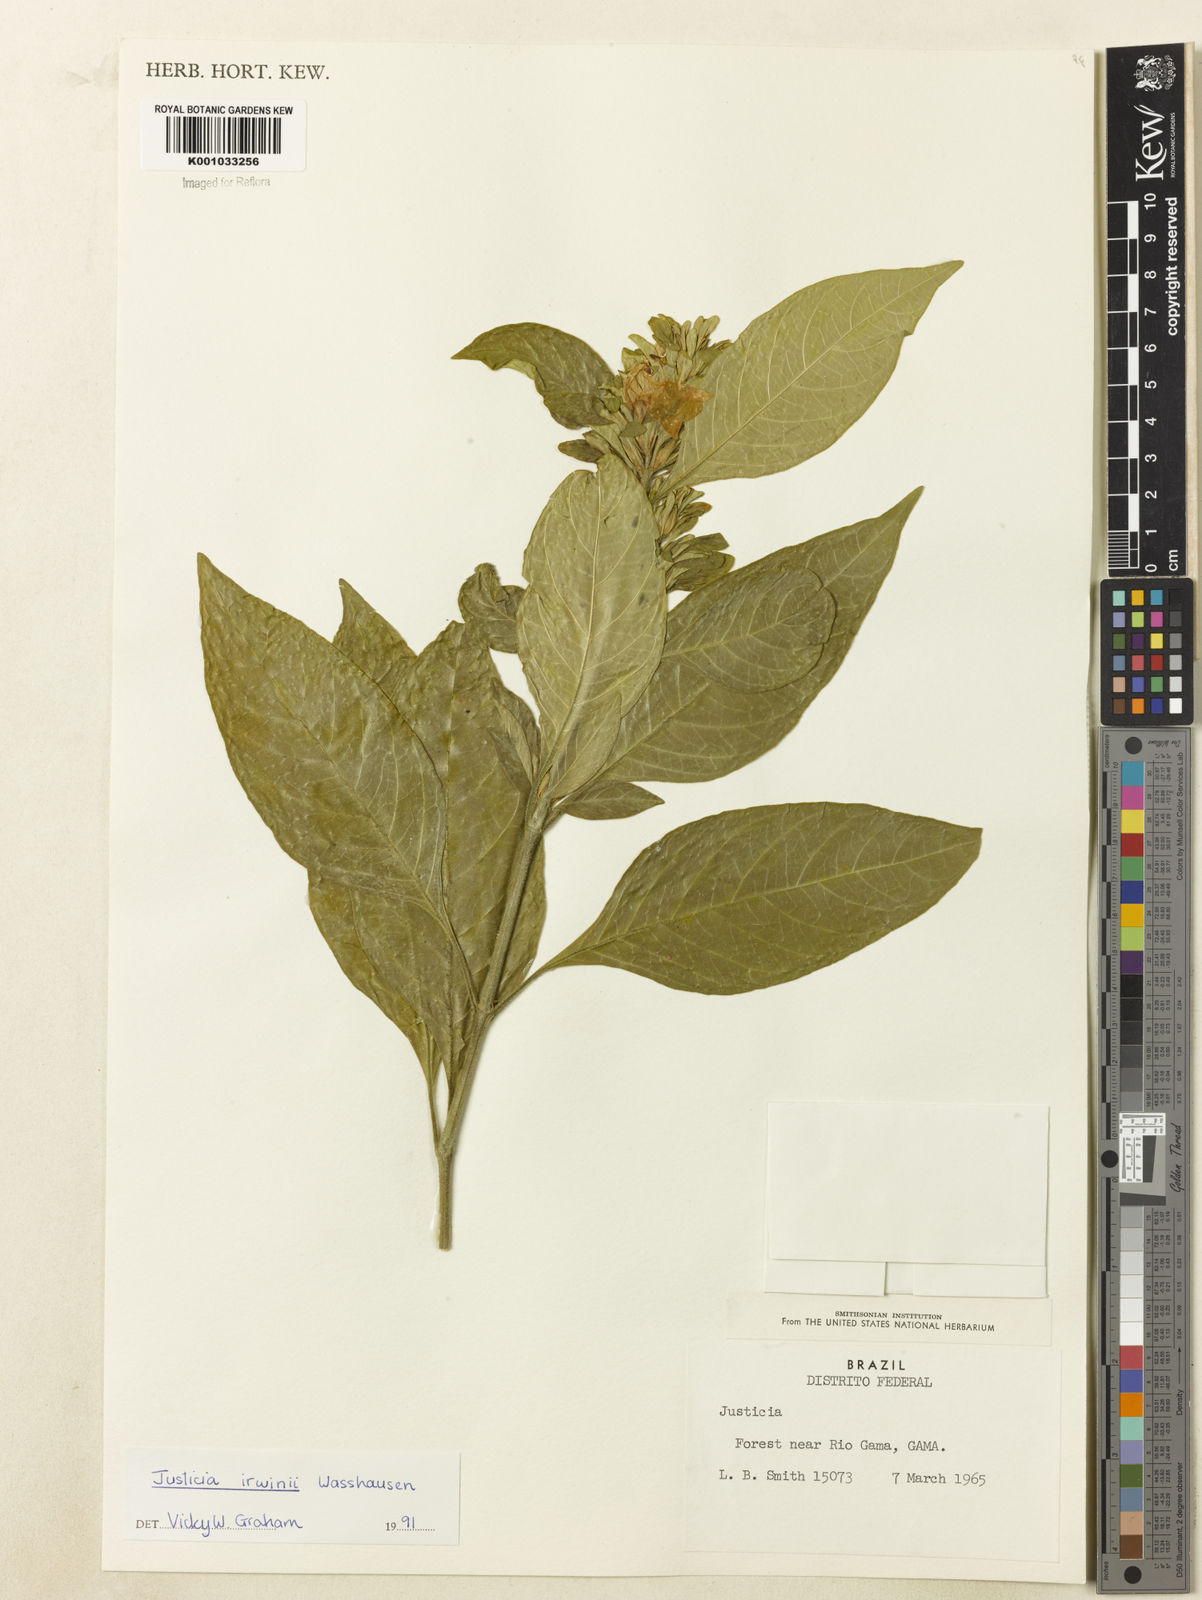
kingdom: Plantae
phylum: Tracheophyta
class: Magnoliopsida
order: Lamiales
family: Acanthaceae
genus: Justicia
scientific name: Justicia irwinii
